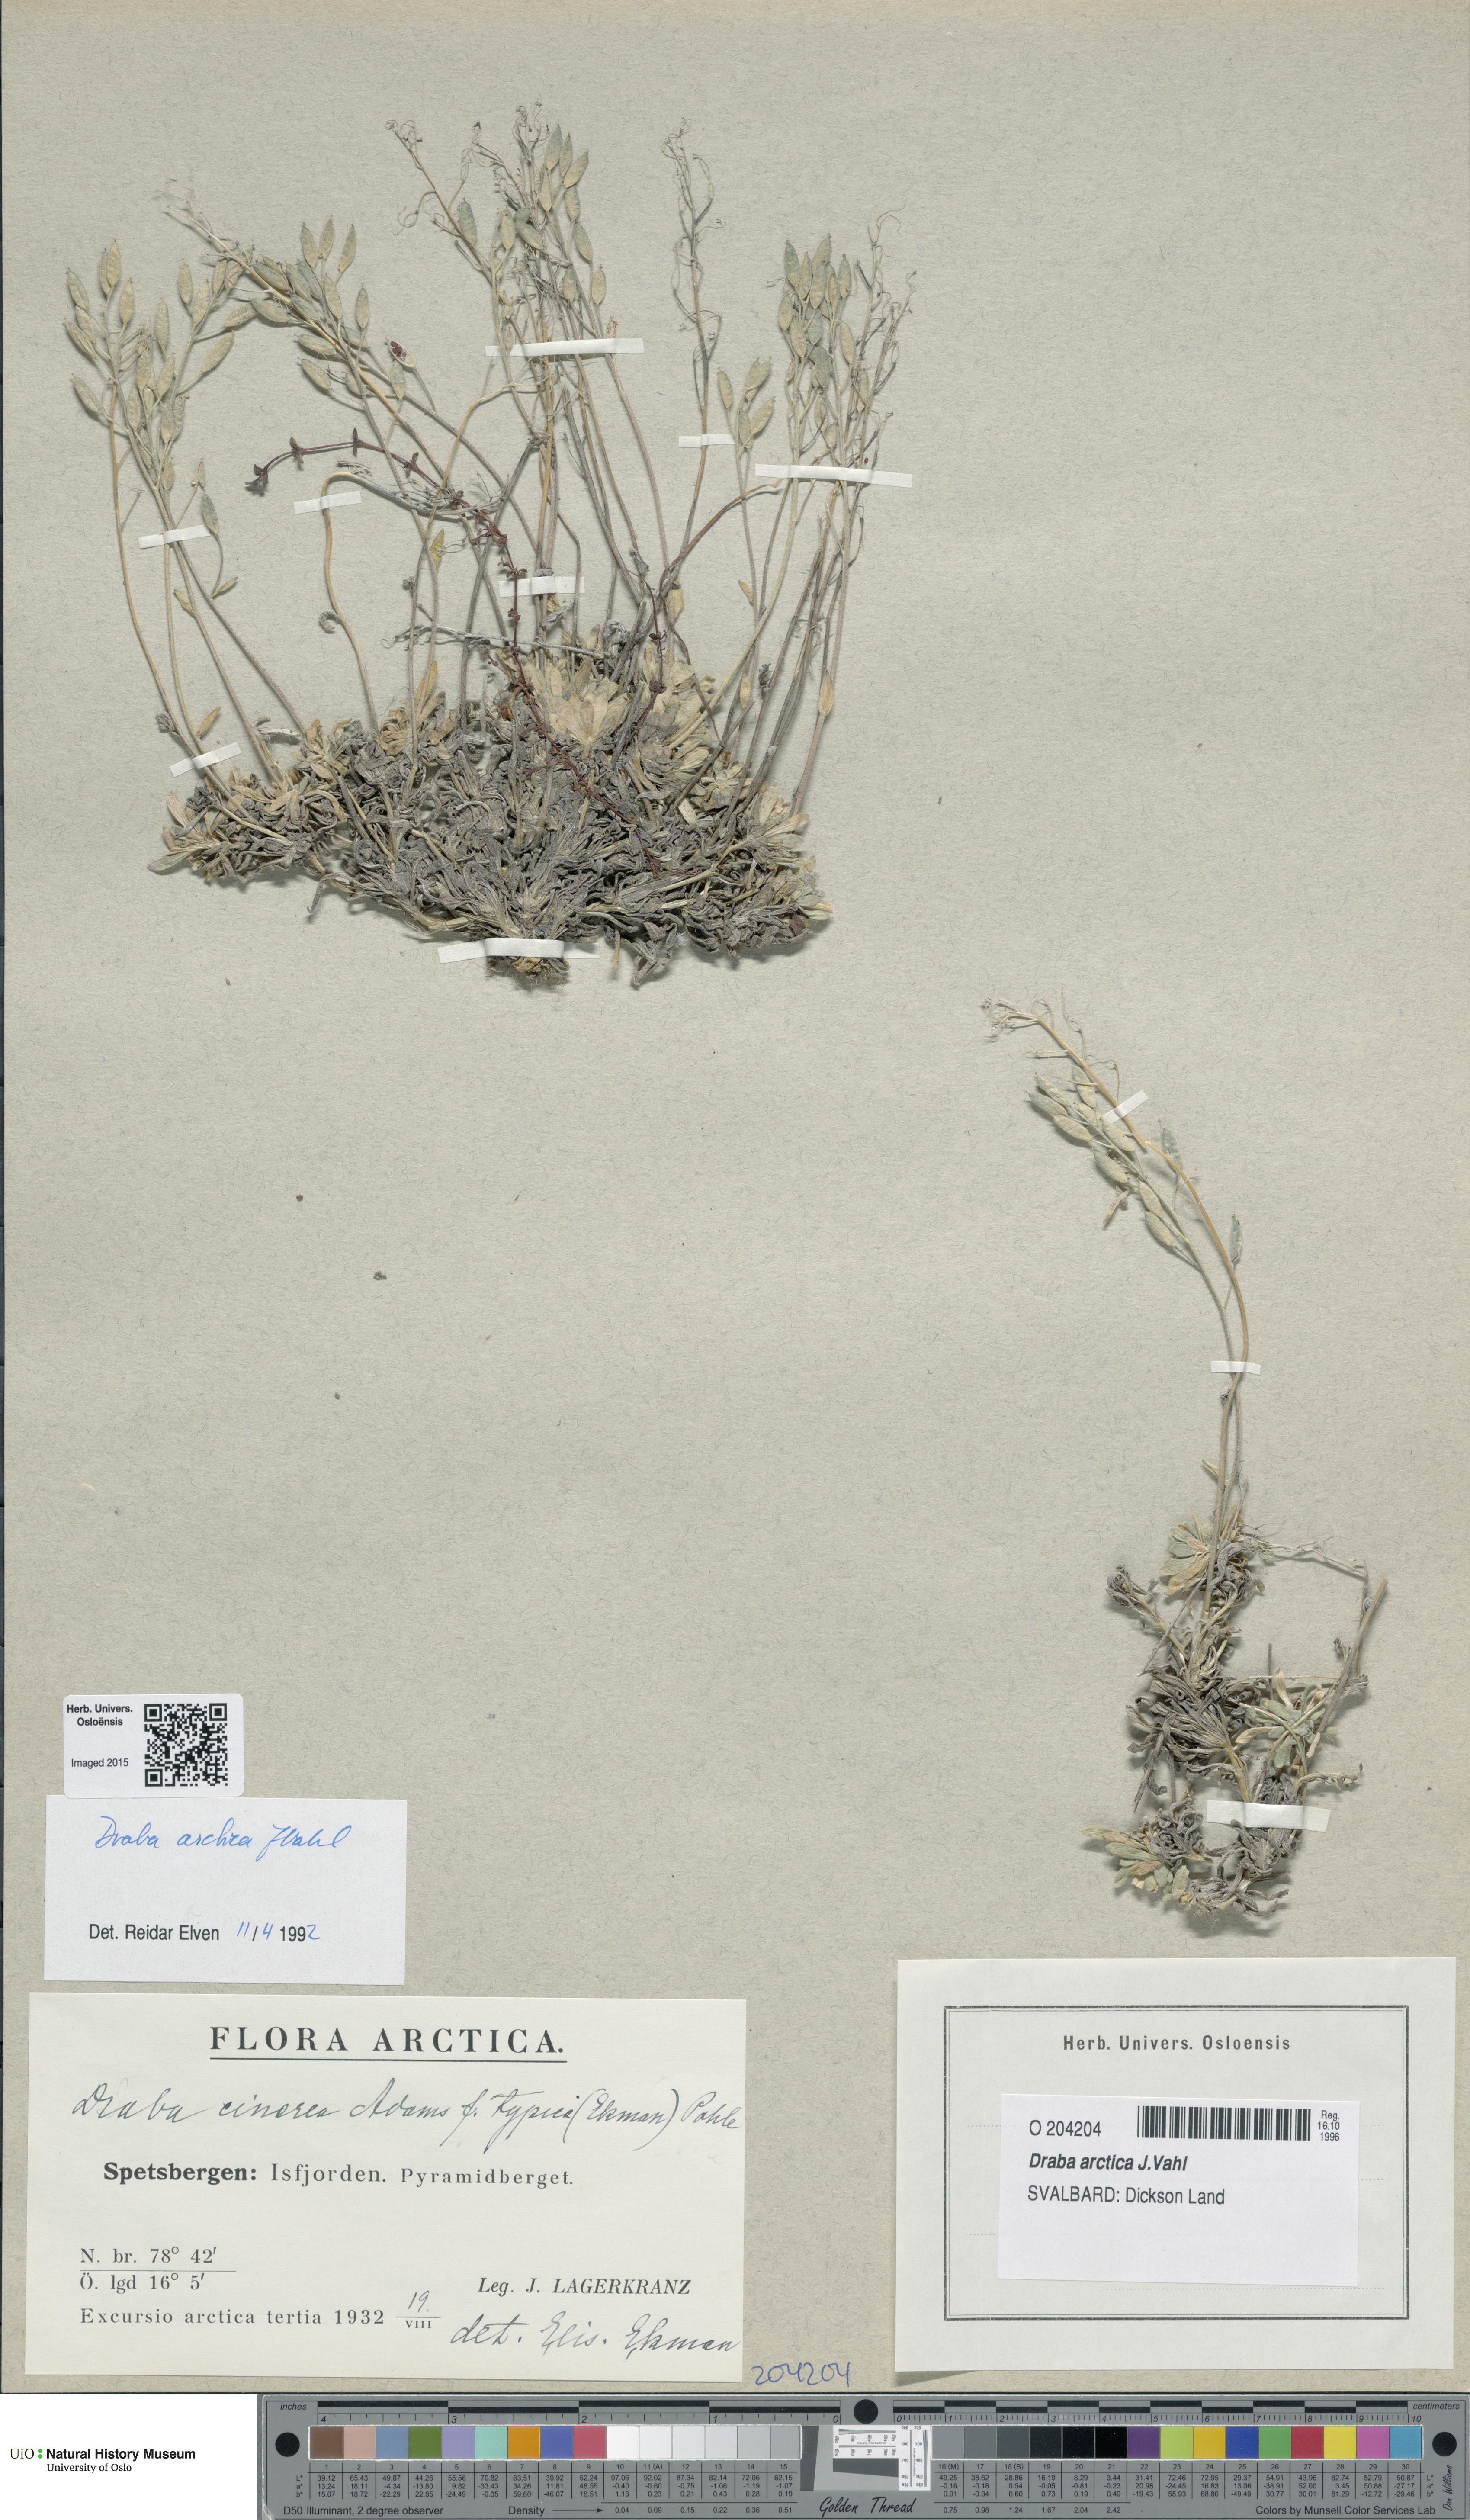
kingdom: Plantae
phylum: Tracheophyta
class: Magnoliopsida
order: Brassicales
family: Brassicaceae
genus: Draba
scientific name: Draba arctica
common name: Arctic draba
